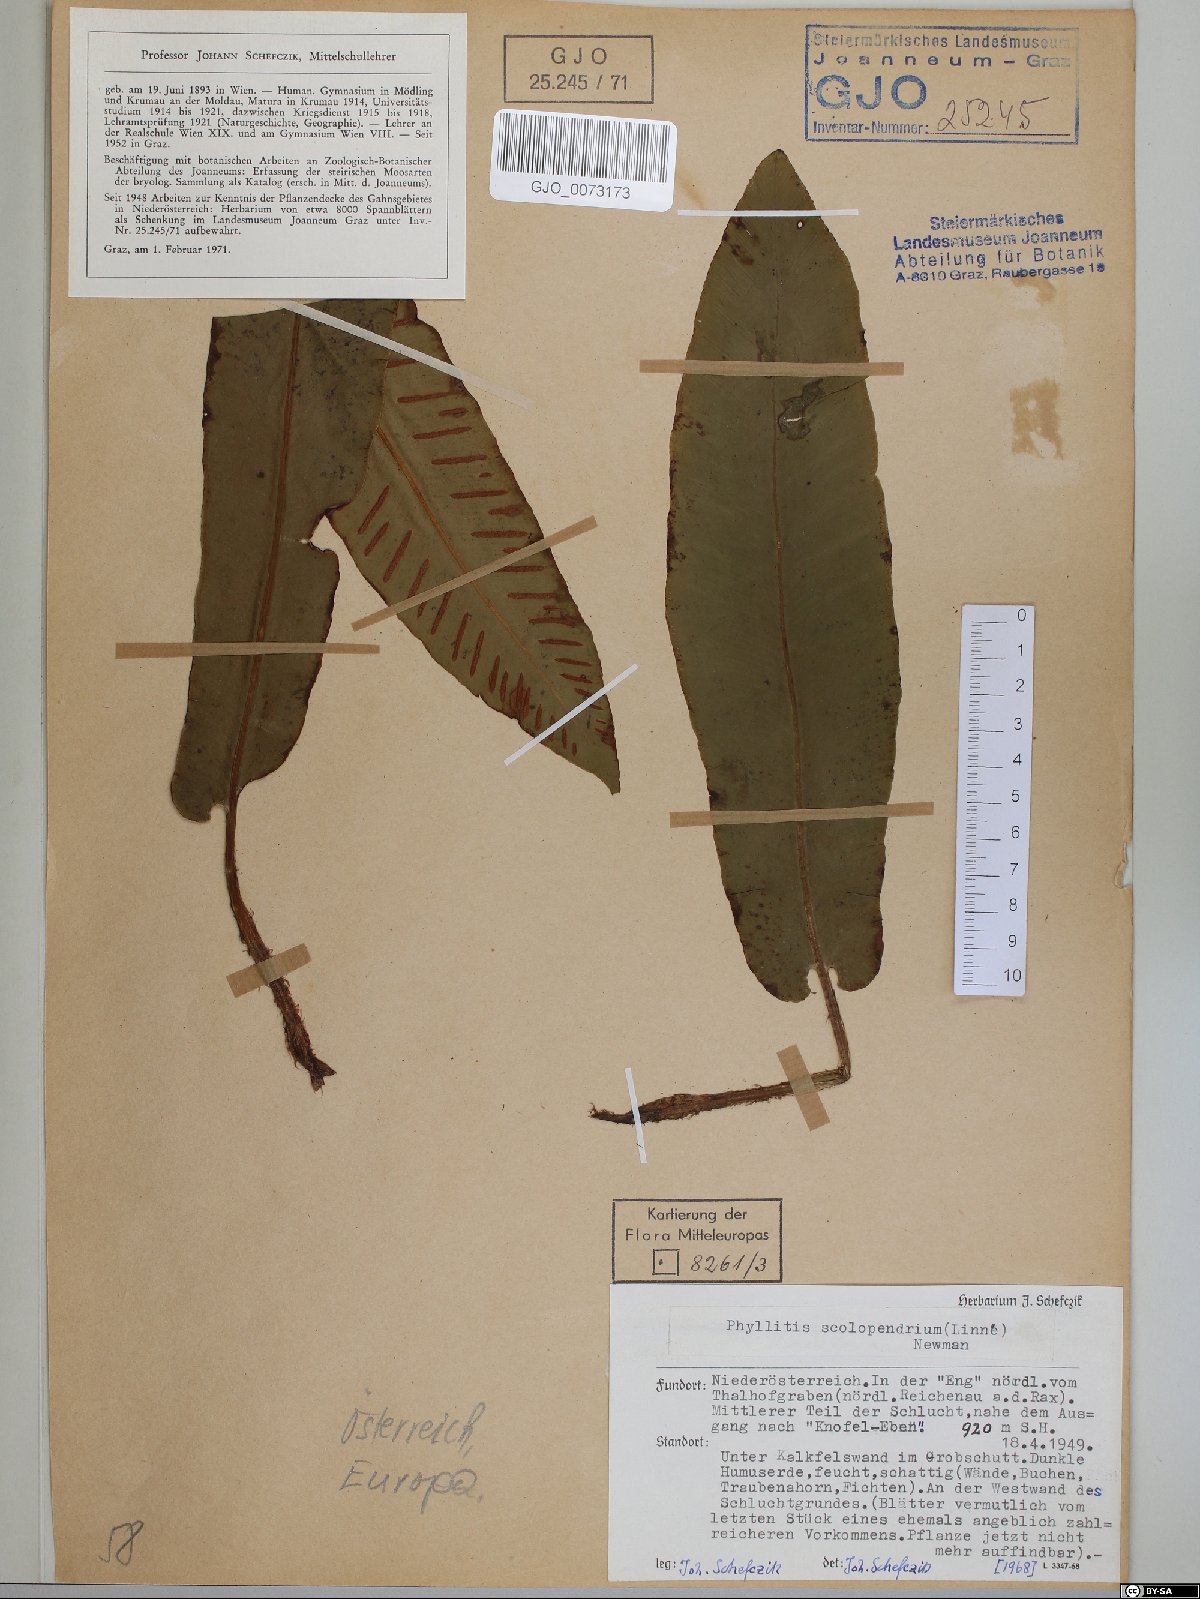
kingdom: Plantae
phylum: Tracheophyta
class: Polypodiopsida
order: Polypodiales
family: Aspleniaceae
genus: Asplenium
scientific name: Asplenium scolopendrium
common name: Hart's-tongue fern
